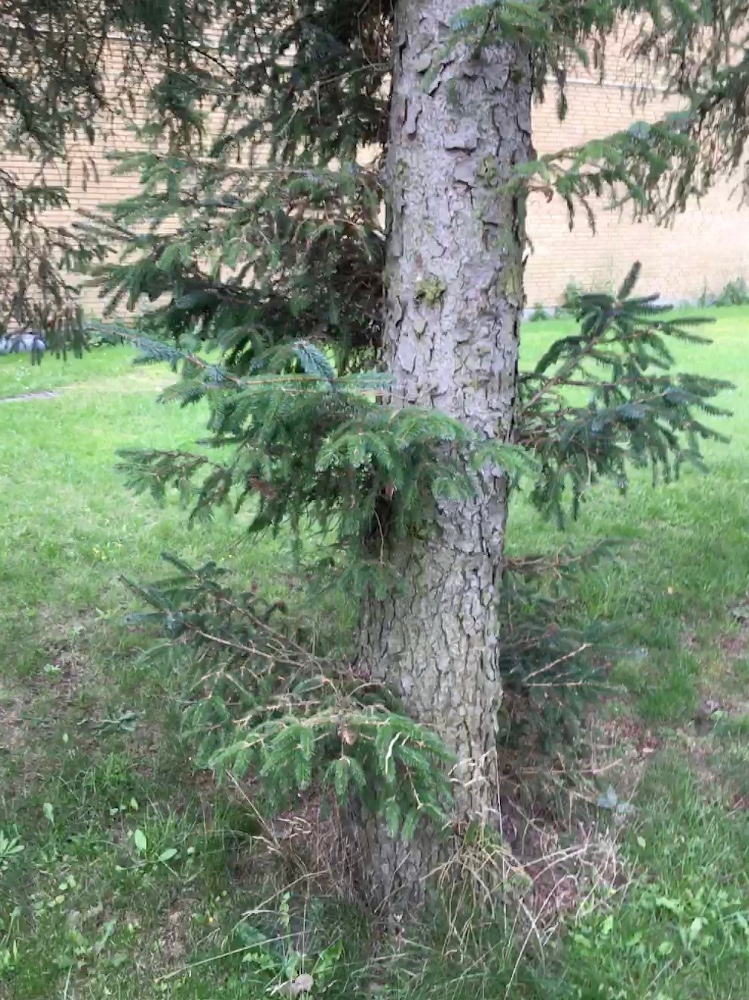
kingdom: Fungi
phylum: Basidiomycota
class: Agaricomycetes
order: Boletales
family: Suillaceae
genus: Suillus
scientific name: Suillus viscidus
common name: olivengrå slimrørhat
